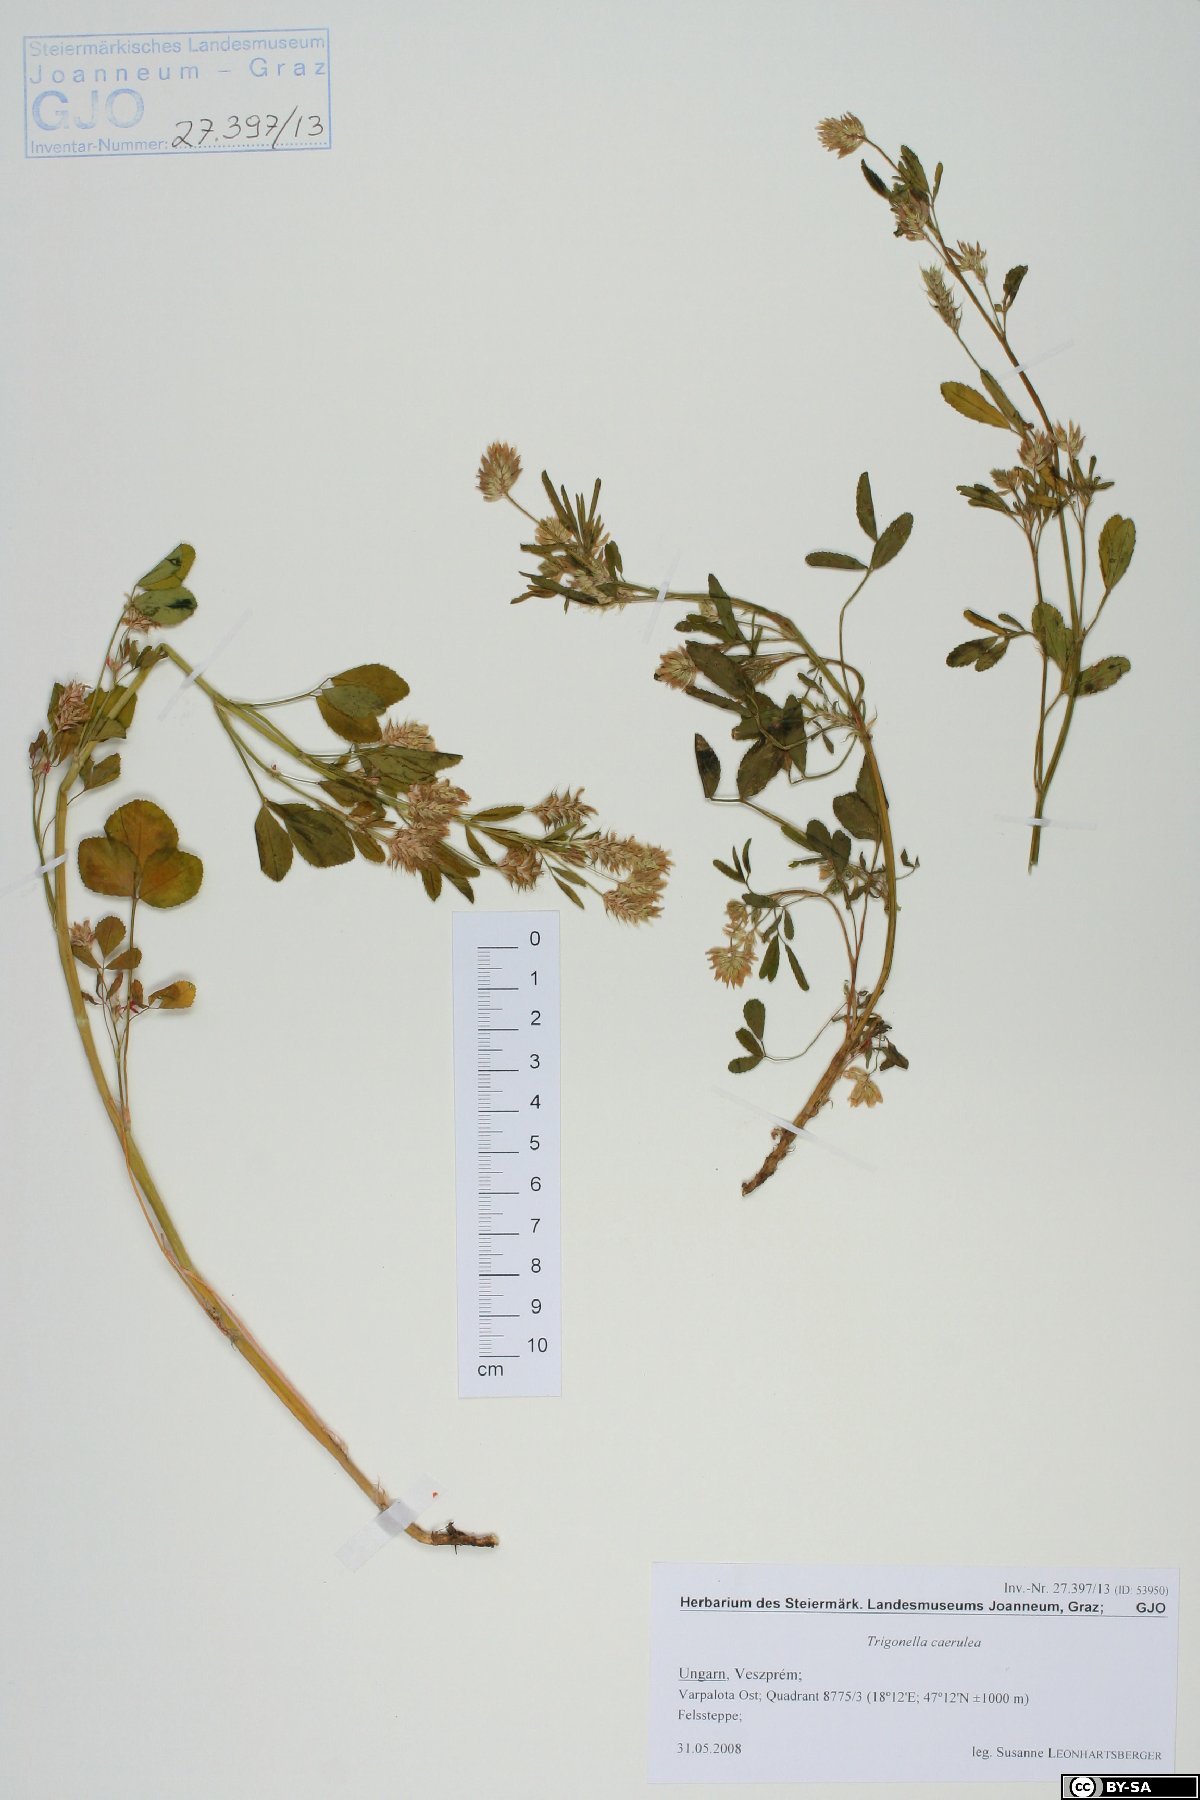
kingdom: Plantae
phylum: Tracheophyta
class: Magnoliopsida
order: Fabales
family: Fabaceae
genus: Trigonella
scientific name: Trigonella caerulea
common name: Blue fenugreek
